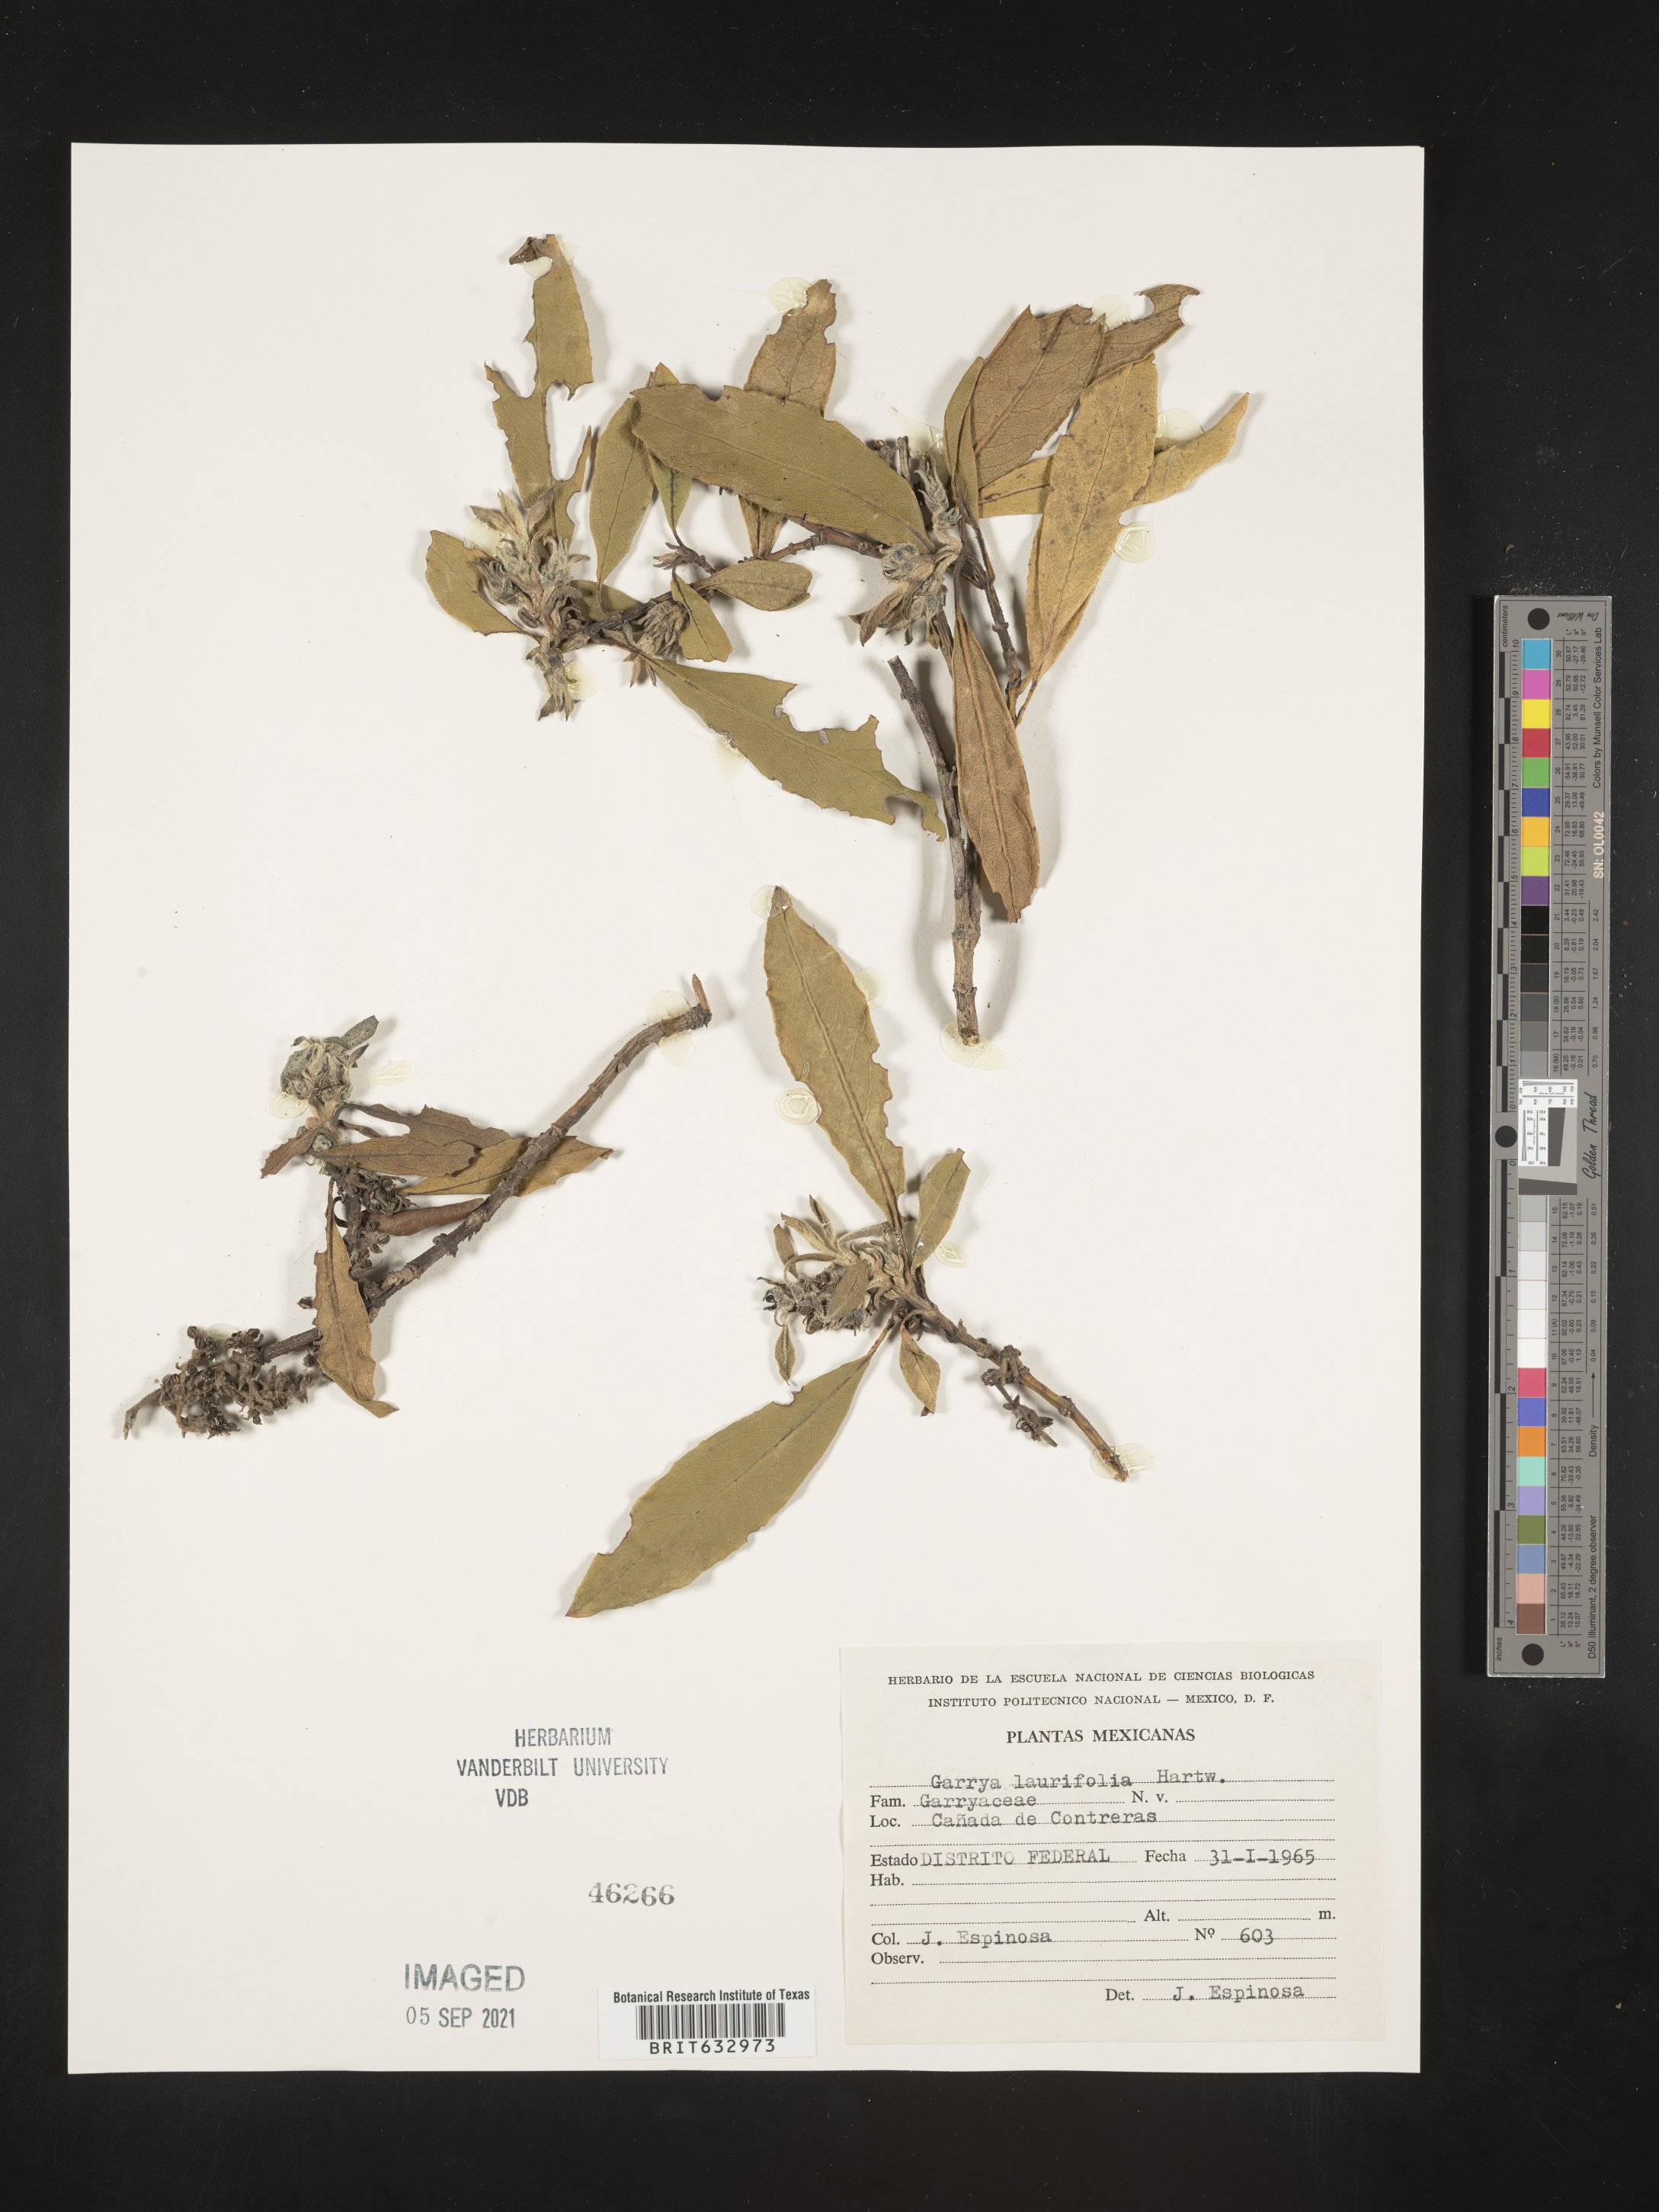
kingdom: Plantae
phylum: Tracheophyta
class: Magnoliopsida
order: Garryales
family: Garryaceae
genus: Garrya
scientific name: Garrya
